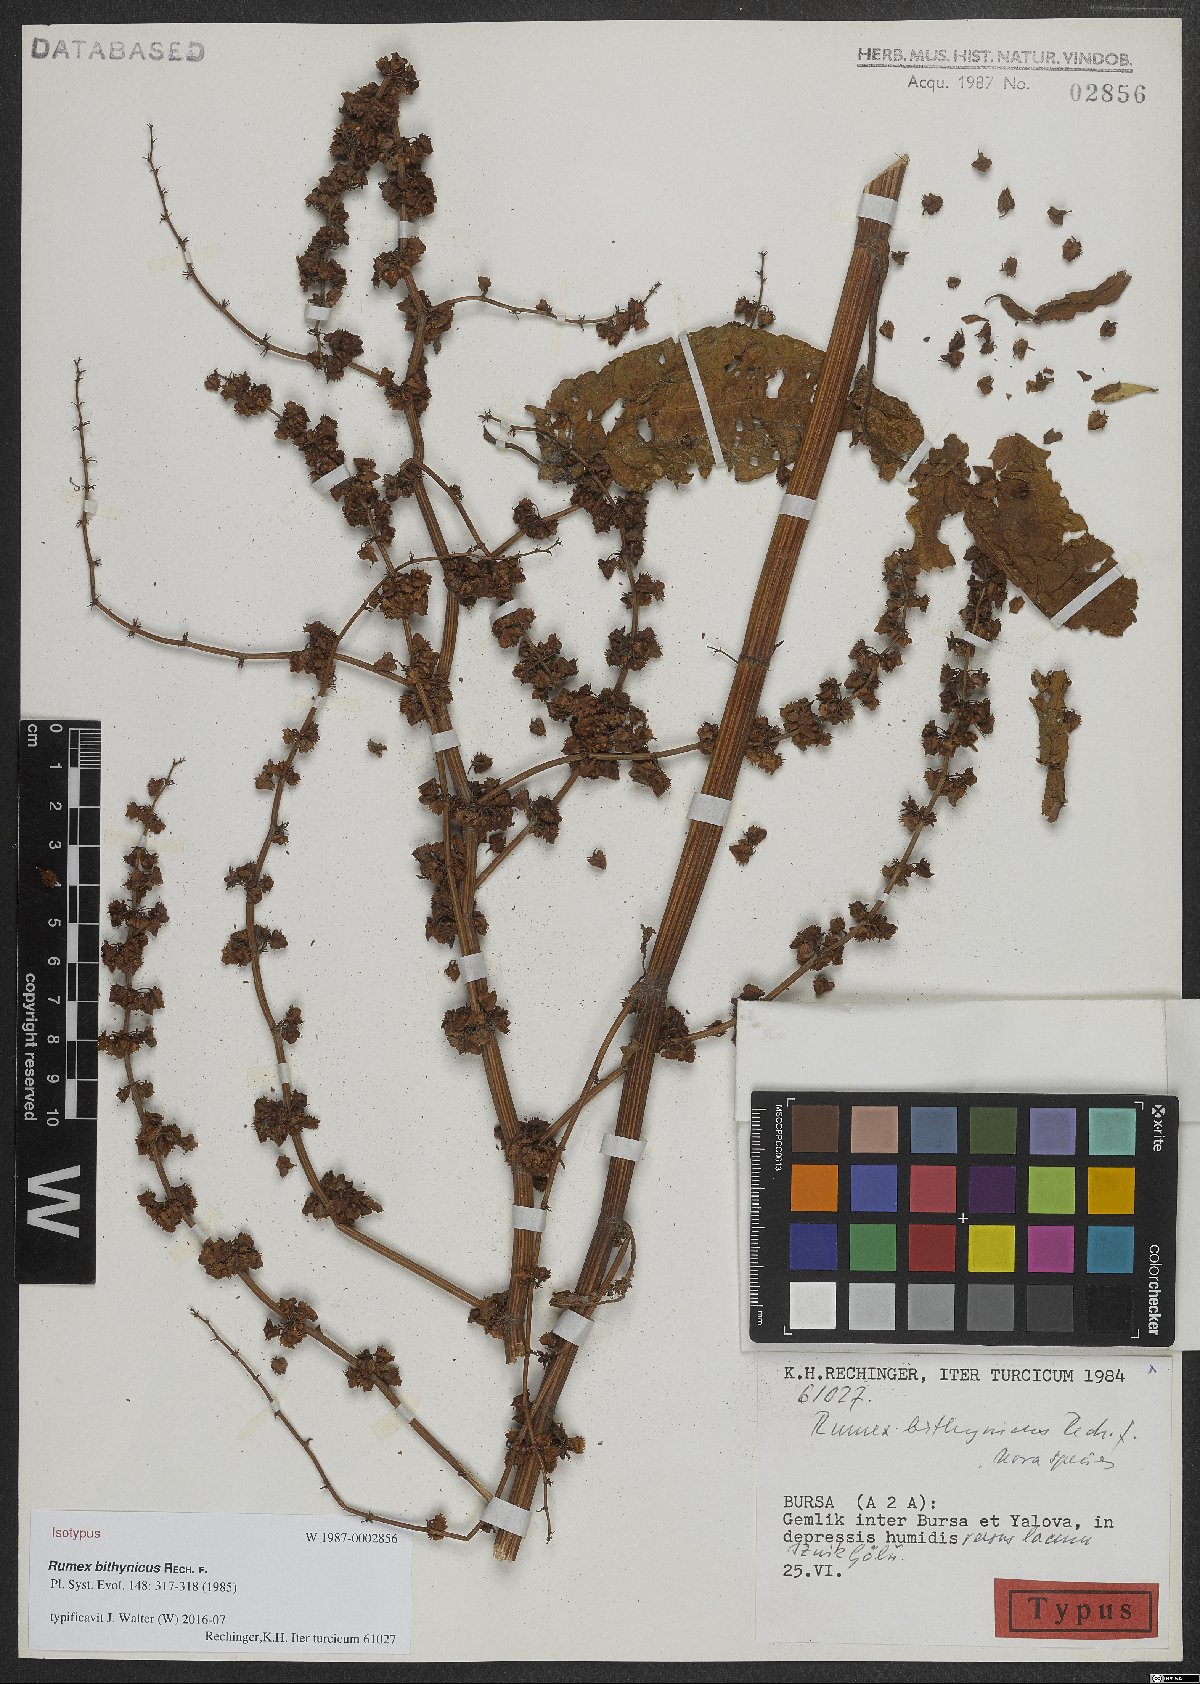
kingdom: Plantae
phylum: Tracheophyta
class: Magnoliopsida
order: Caryophyllales
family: Polygonaceae
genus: Rumex
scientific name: Rumex bithynicus
